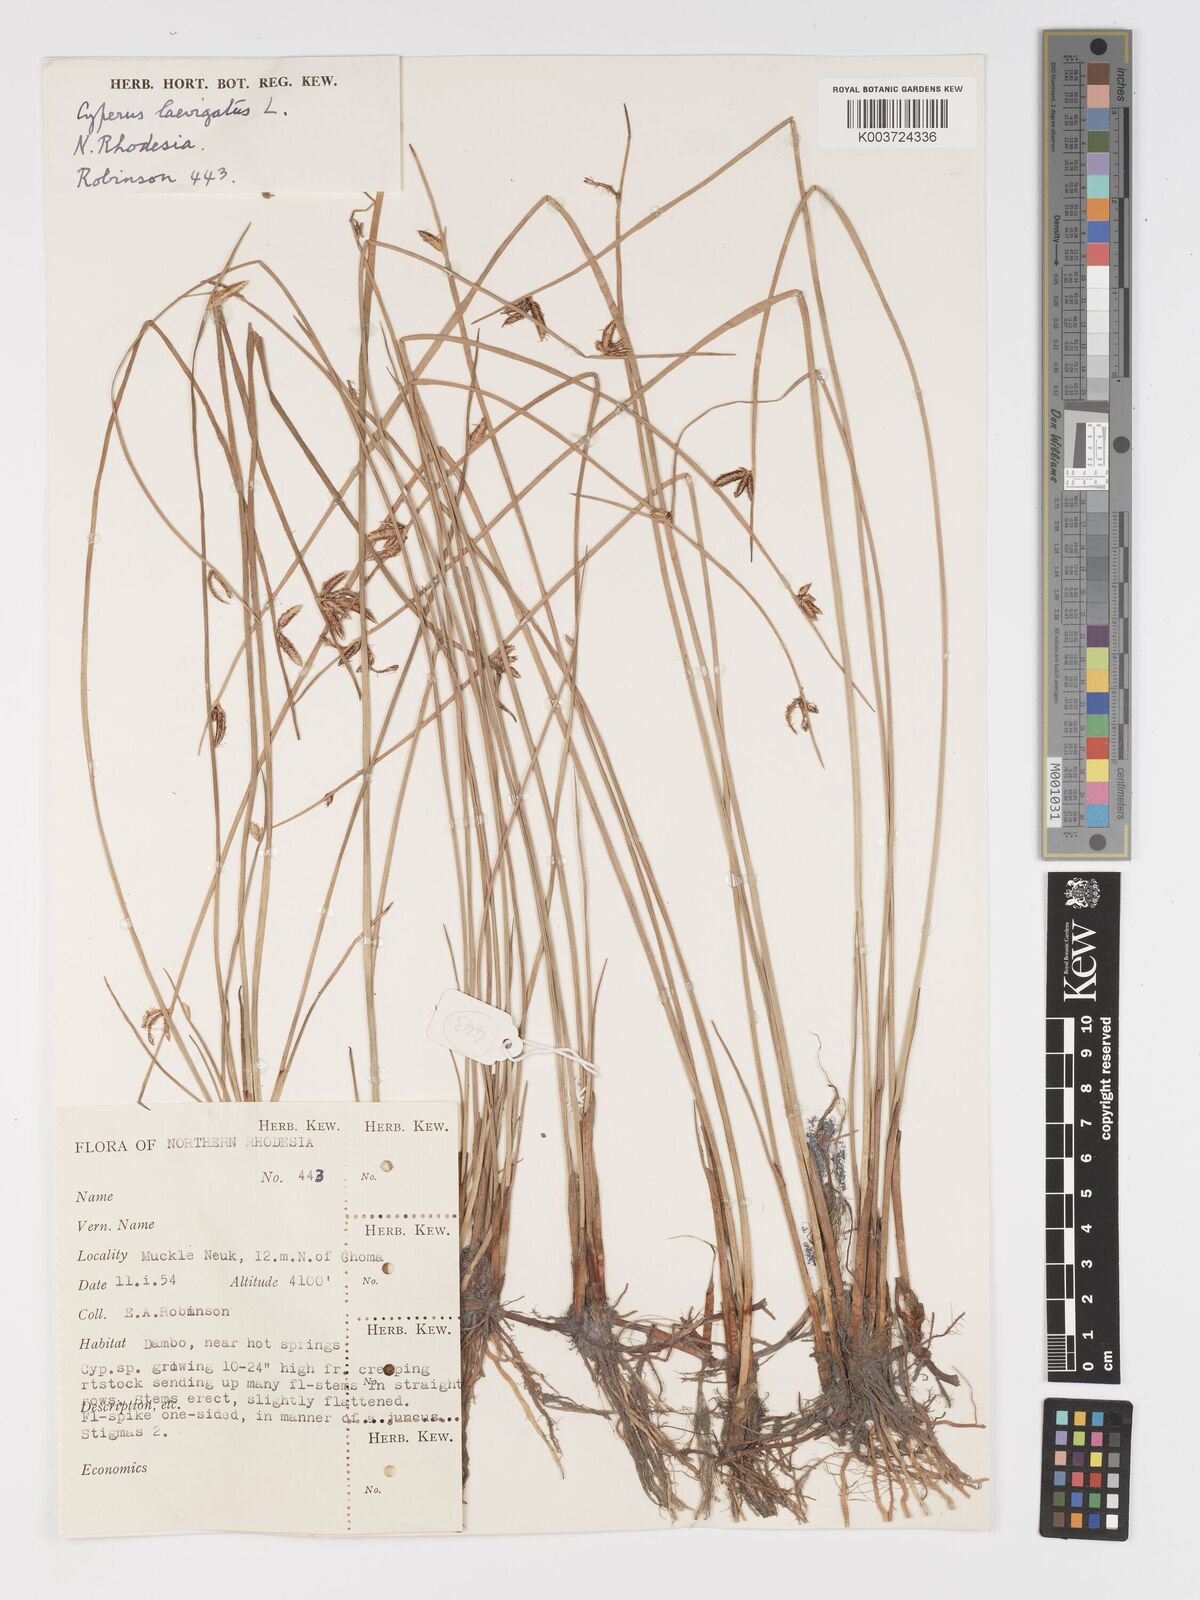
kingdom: Plantae
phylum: Tracheophyta
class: Liliopsida
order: Poales
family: Cyperaceae
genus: Cyperus
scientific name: Cyperus laevigatus
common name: Smooth flat sedge
